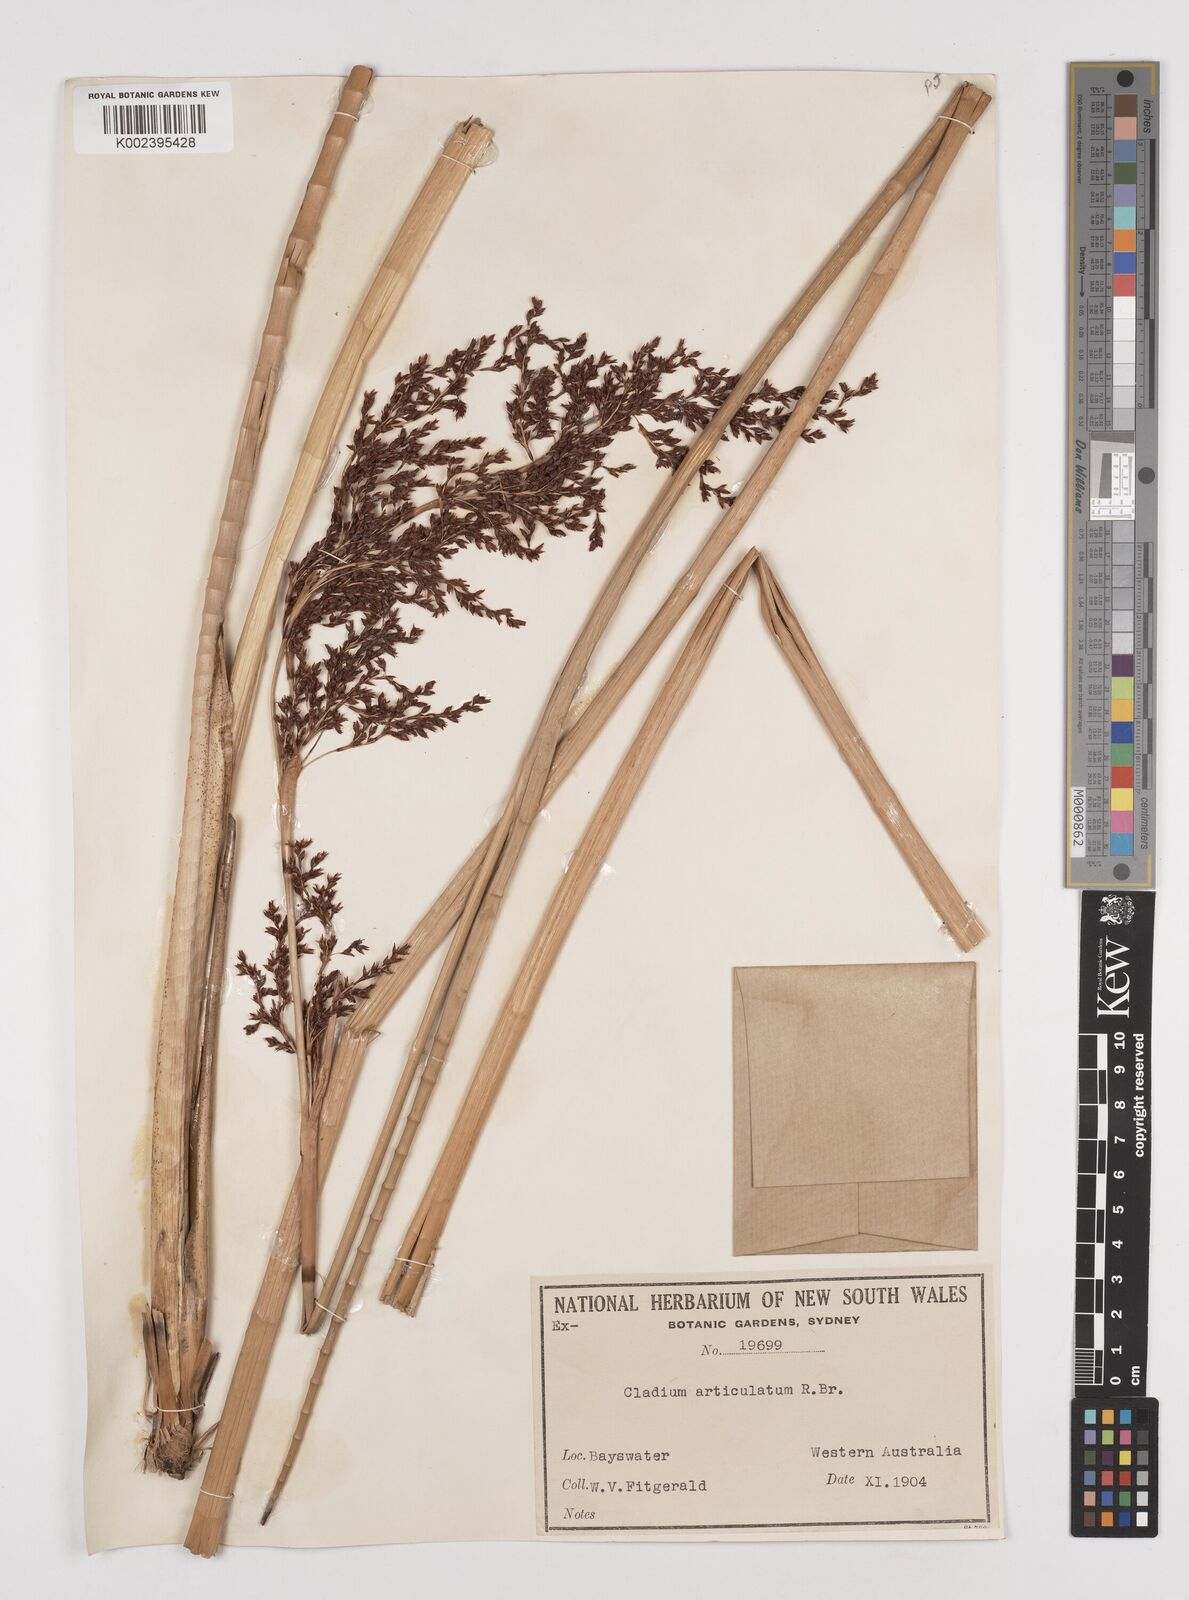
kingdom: Plantae
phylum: Tracheophyta
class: Liliopsida
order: Poales
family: Cyperaceae
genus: Machaerina
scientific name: Machaerina articulata
